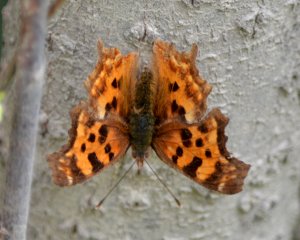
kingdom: Animalia
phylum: Arthropoda
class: Insecta
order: Lepidoptera
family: Nymphalidae
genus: Polygonia
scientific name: Polygonia satyrus
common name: Satyr Comma
